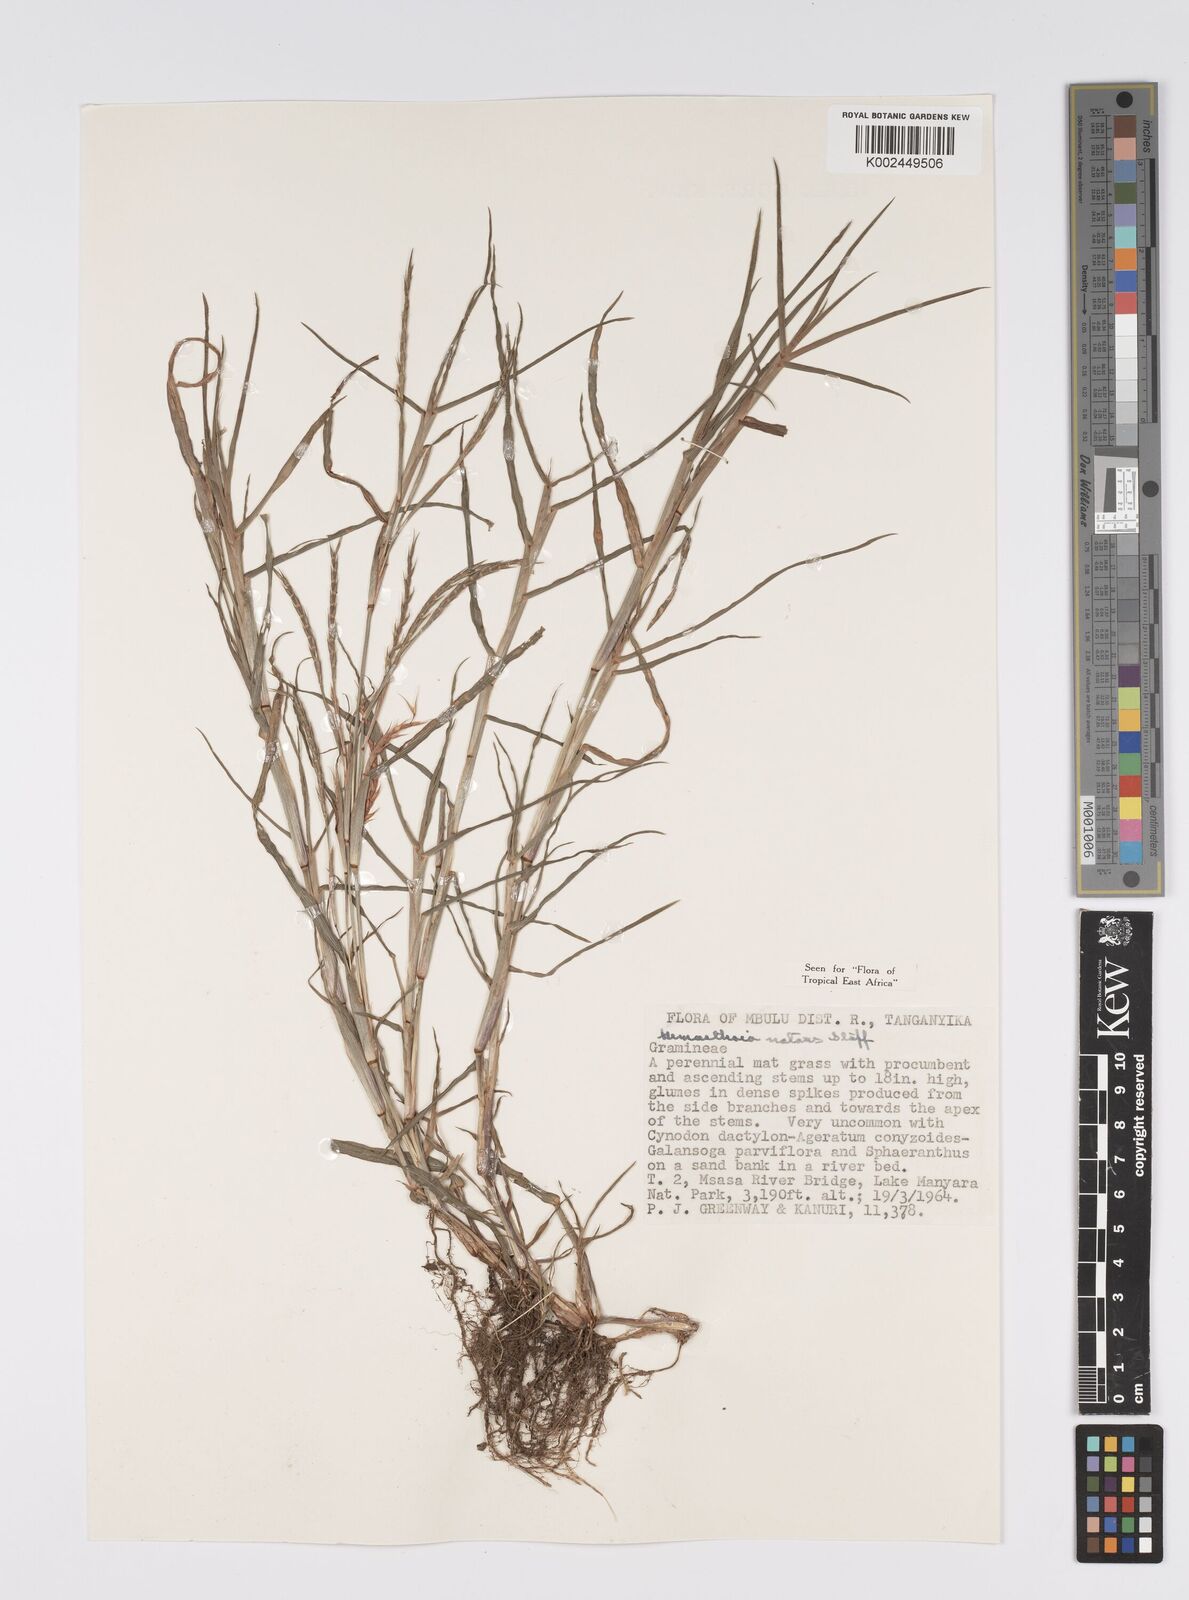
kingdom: Plantae
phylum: Tracheophyta
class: Liliopsida
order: Poales
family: Poaceae
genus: Hemarthria
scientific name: Hemarthria natans
